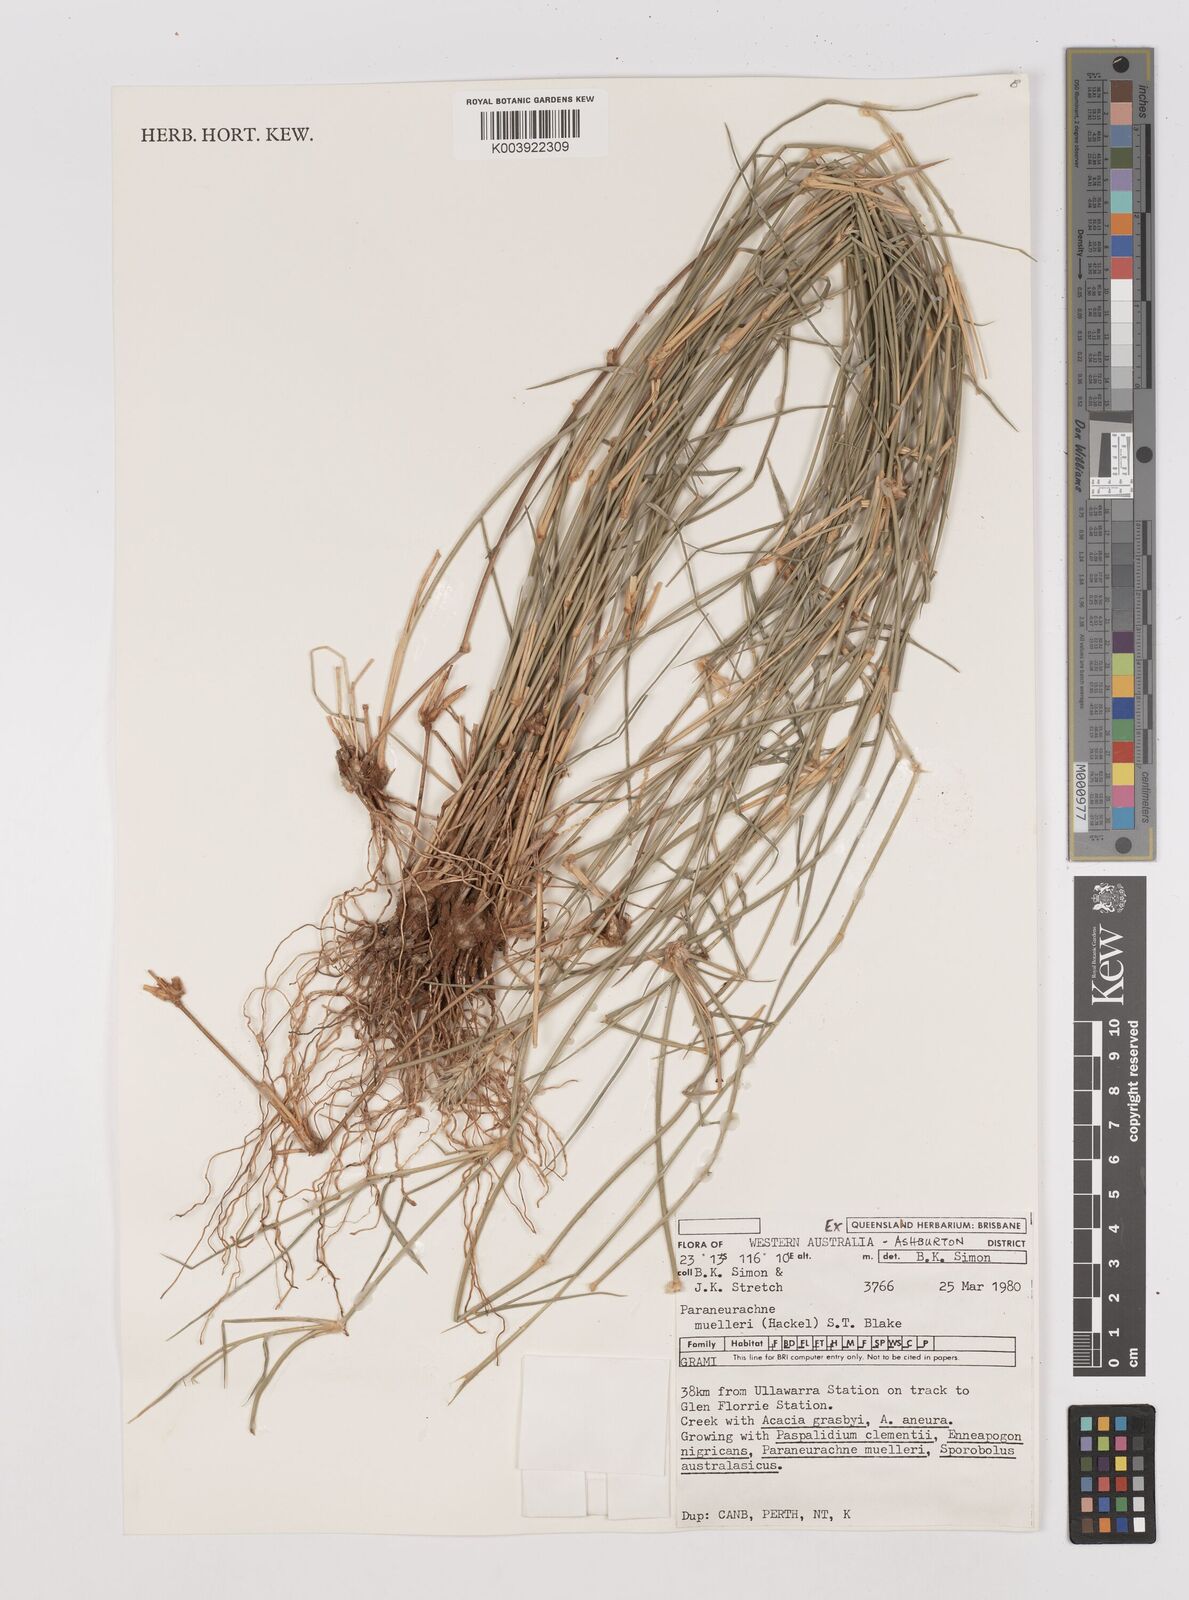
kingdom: Plantae
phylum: Tracheophyta
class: Liliopsida
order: Poales
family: Poaceae
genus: Neurachne
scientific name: Neurachne muelleri
